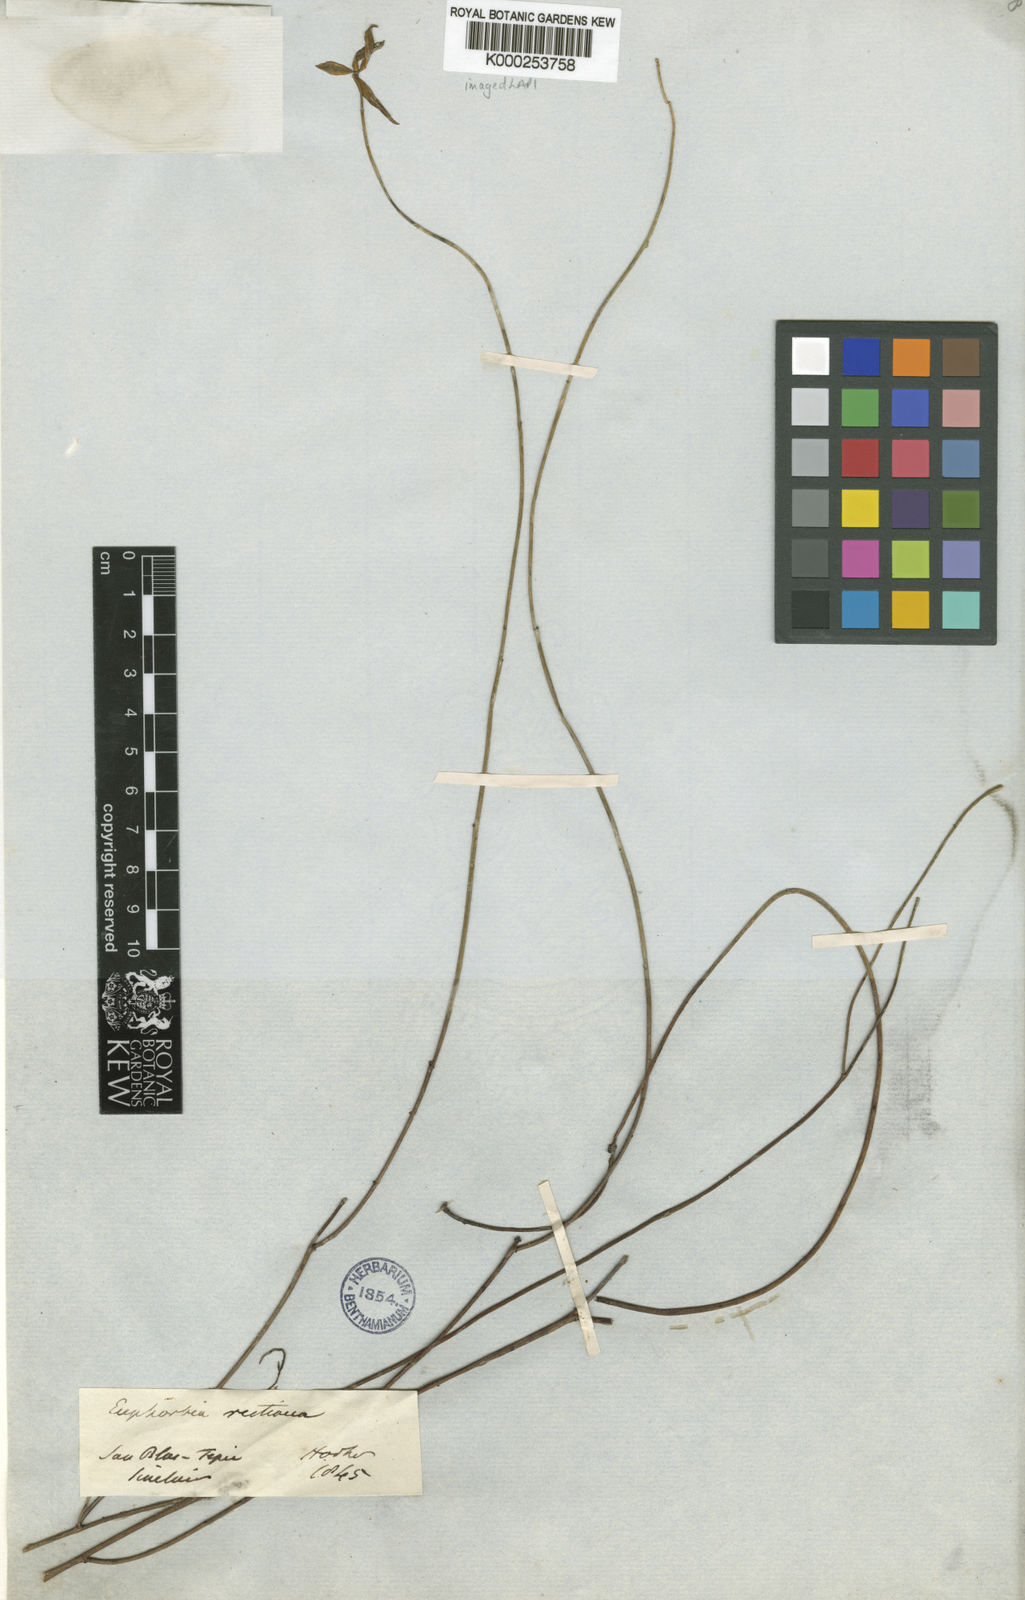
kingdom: Plantae
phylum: Tracheophyta
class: Magnoliopsida
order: Malpighiales
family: Euphorbiaceae
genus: Euphorbia
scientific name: Euphorbia restiacea
